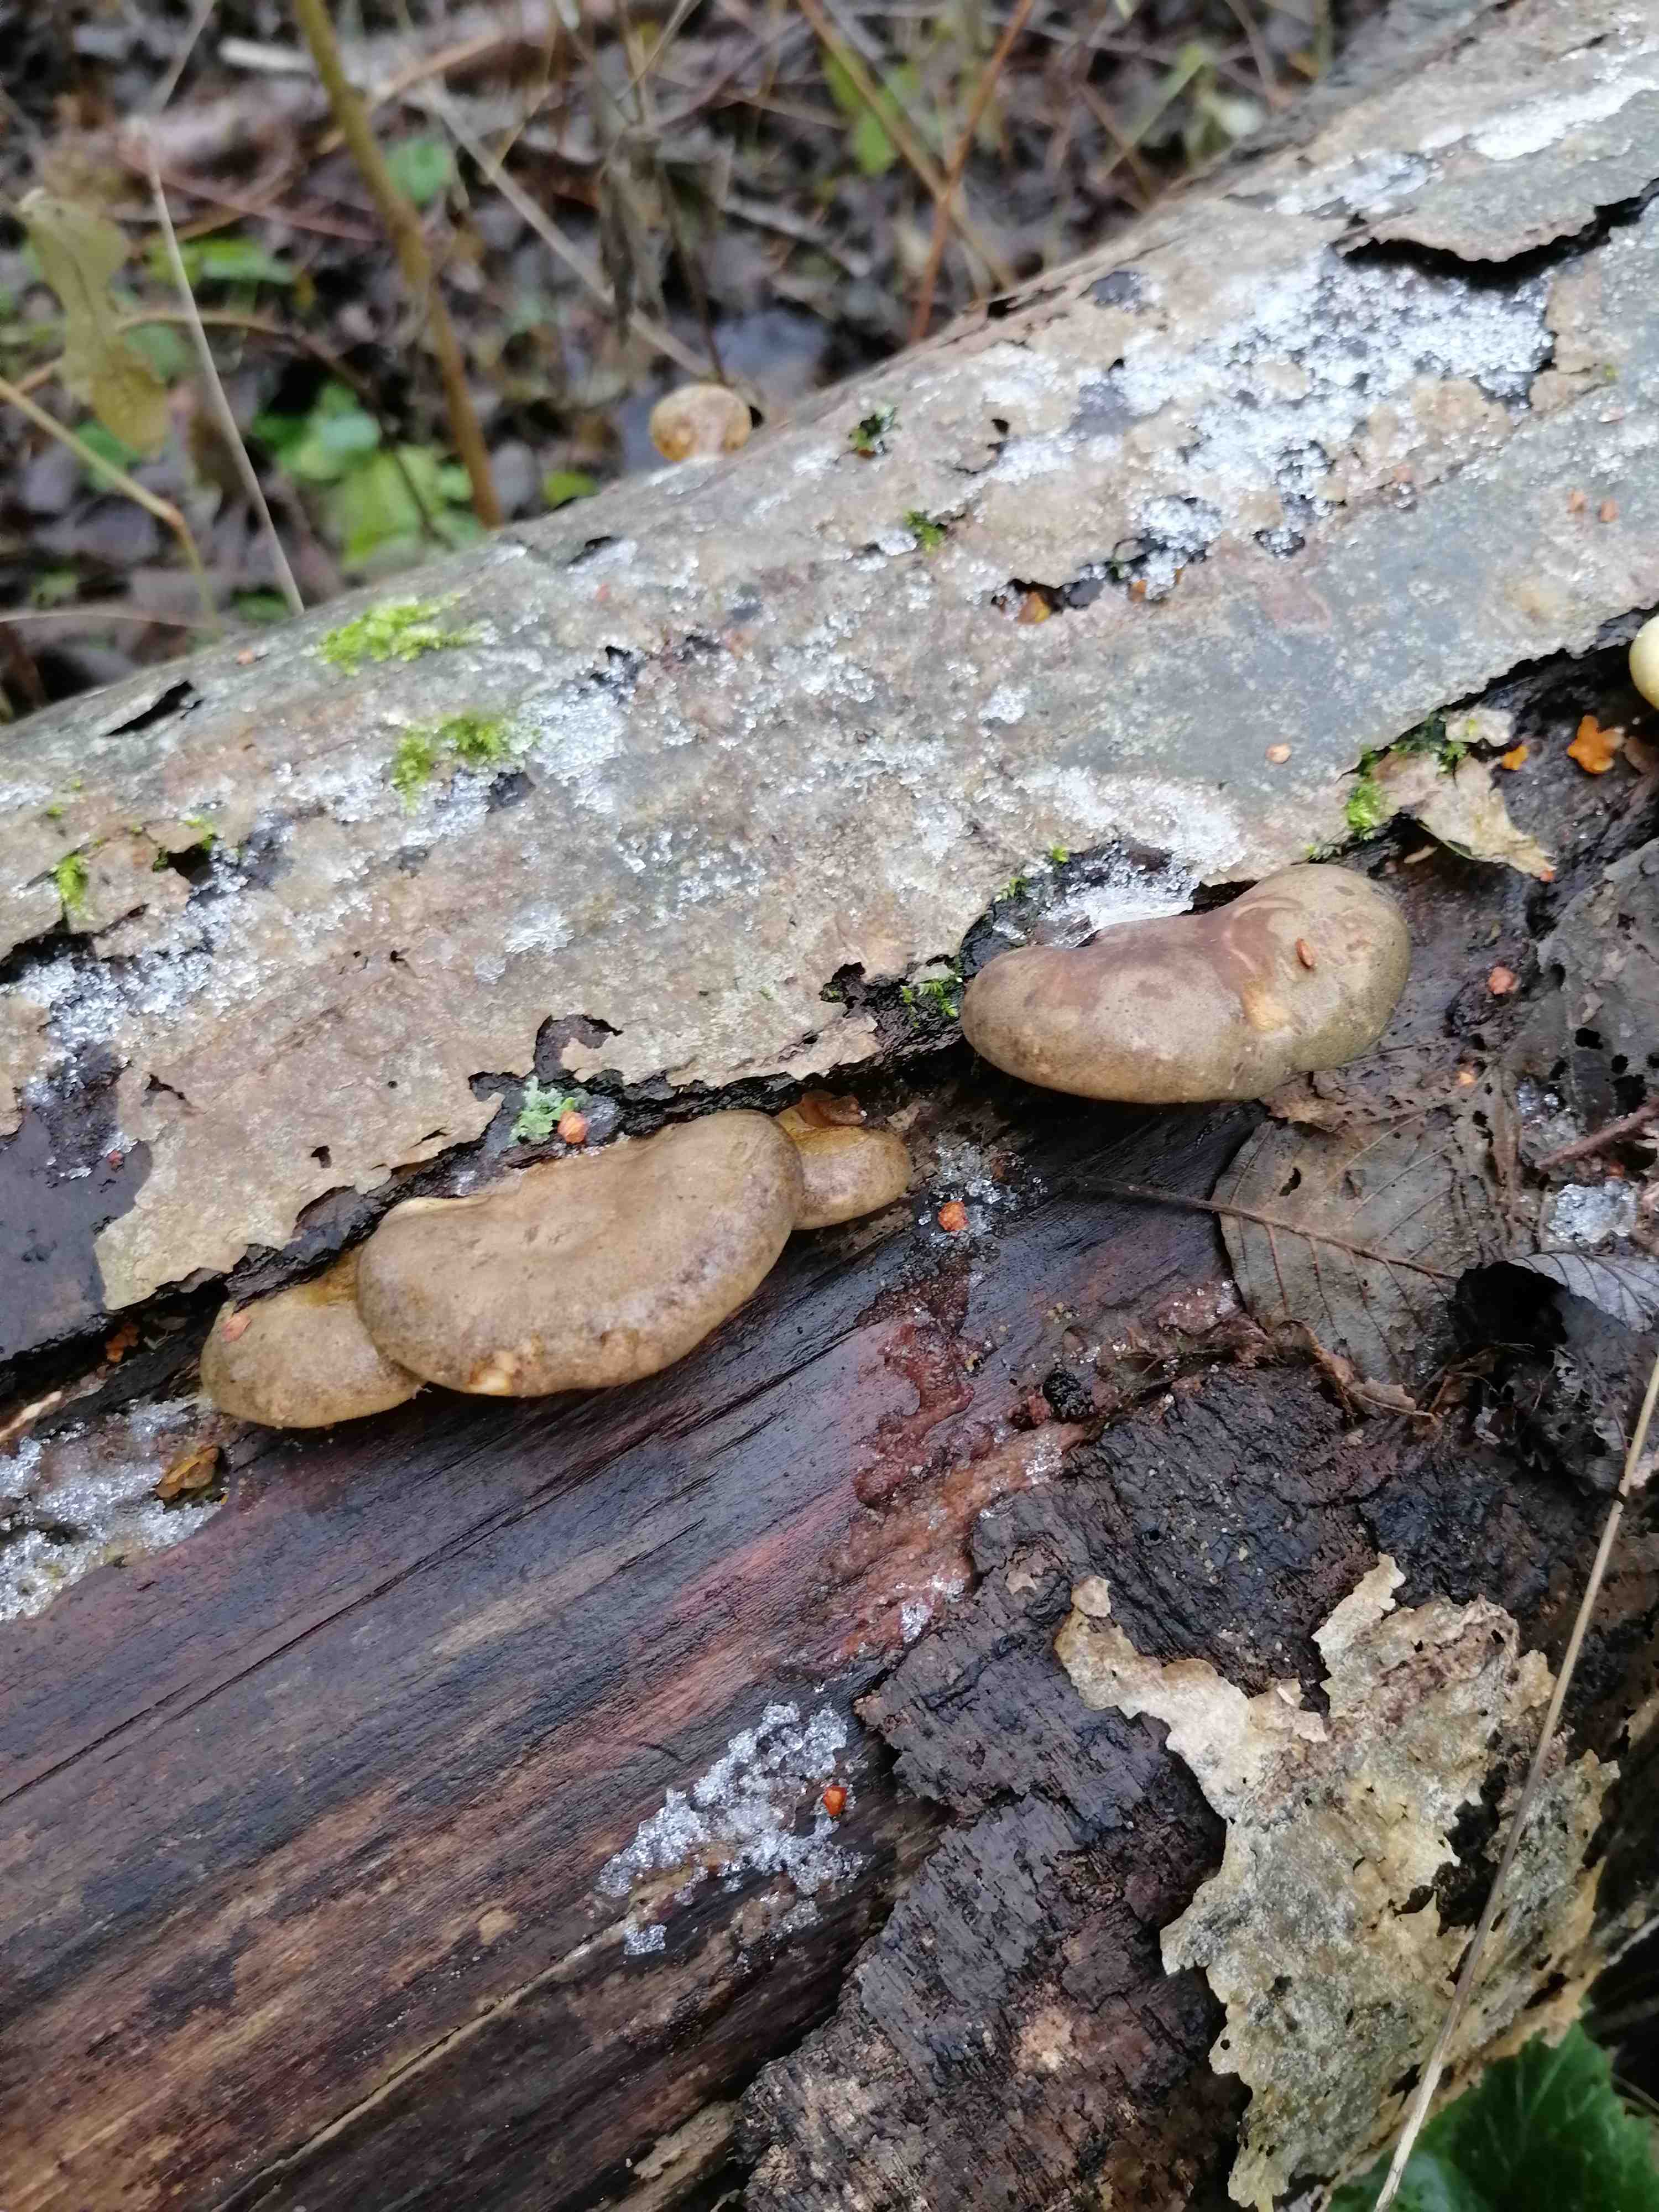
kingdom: Fungi
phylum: Basidiomycota
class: Agaricomycetes
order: Agaricales
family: Sarcomyxaceae
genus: Sarcomyxa
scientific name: Sarcomyxa serotina
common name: gummihat
